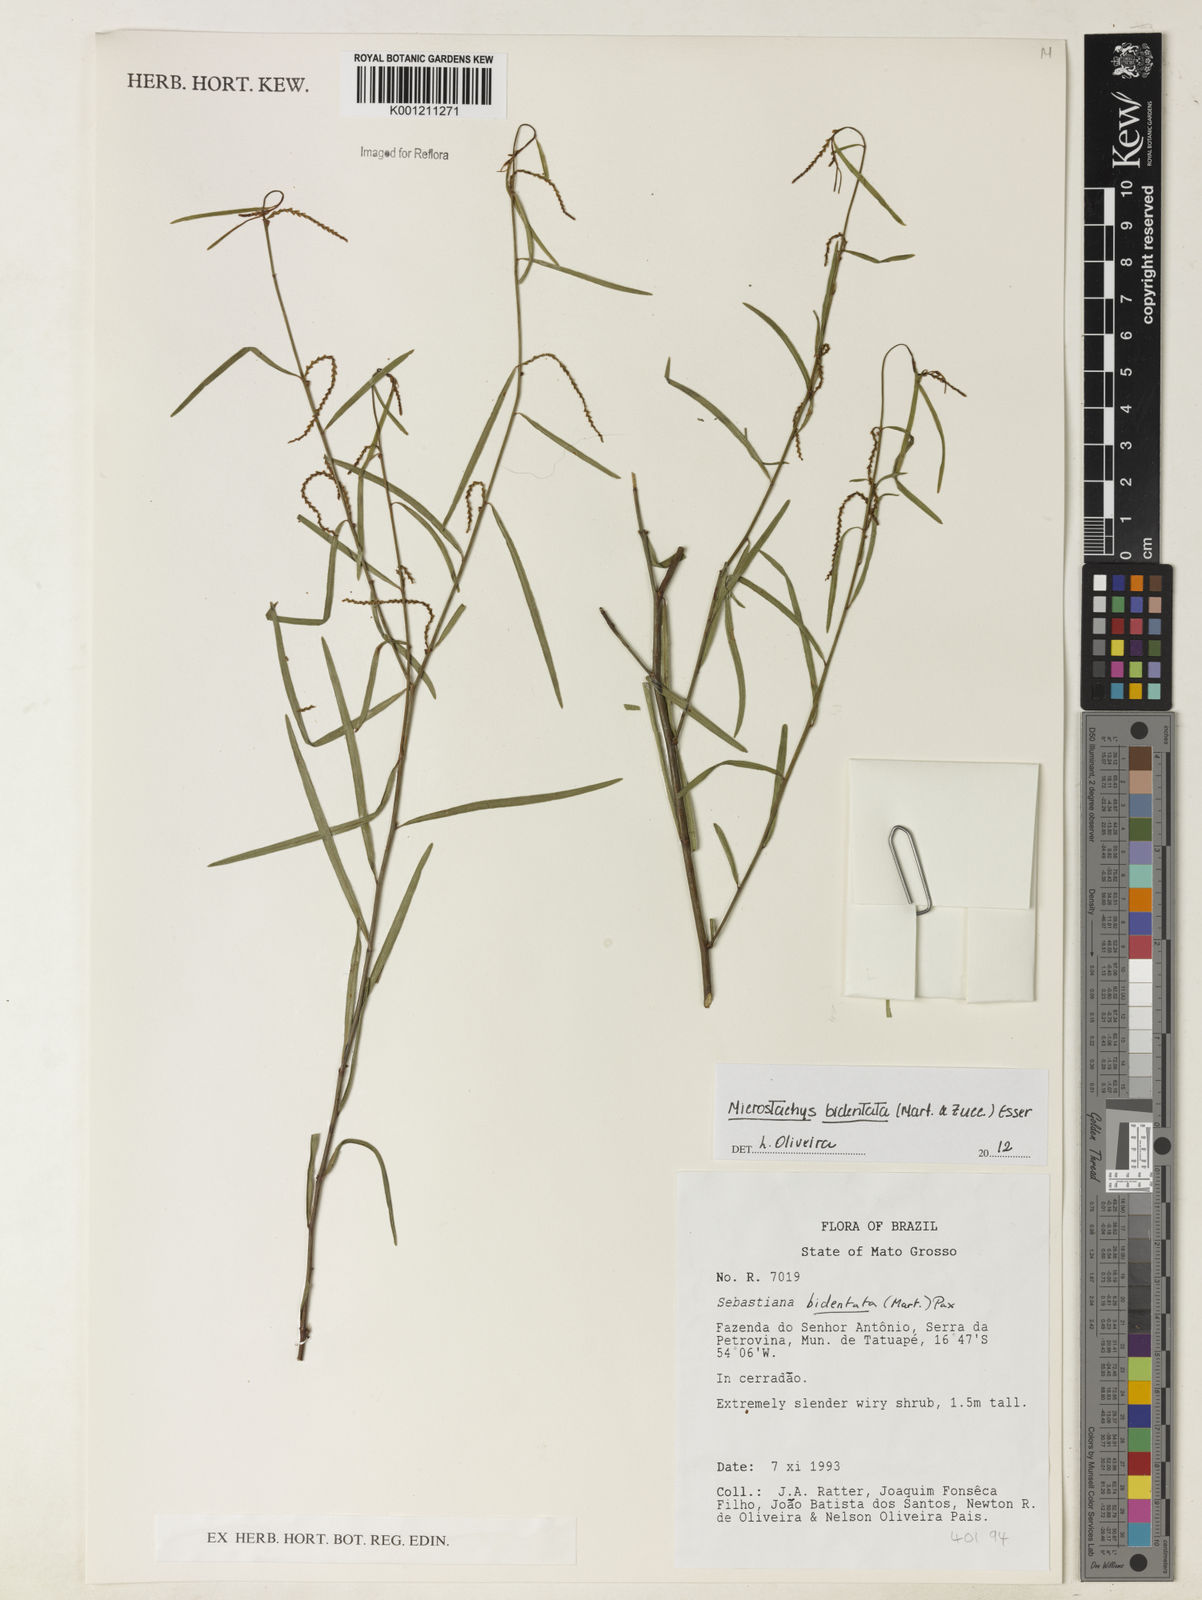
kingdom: Plantae
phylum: Tracheophyta
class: Magnoliopsida
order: Malpighiales
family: Euphorbiaceae
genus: Microstachys
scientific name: Microstachys bidentata
